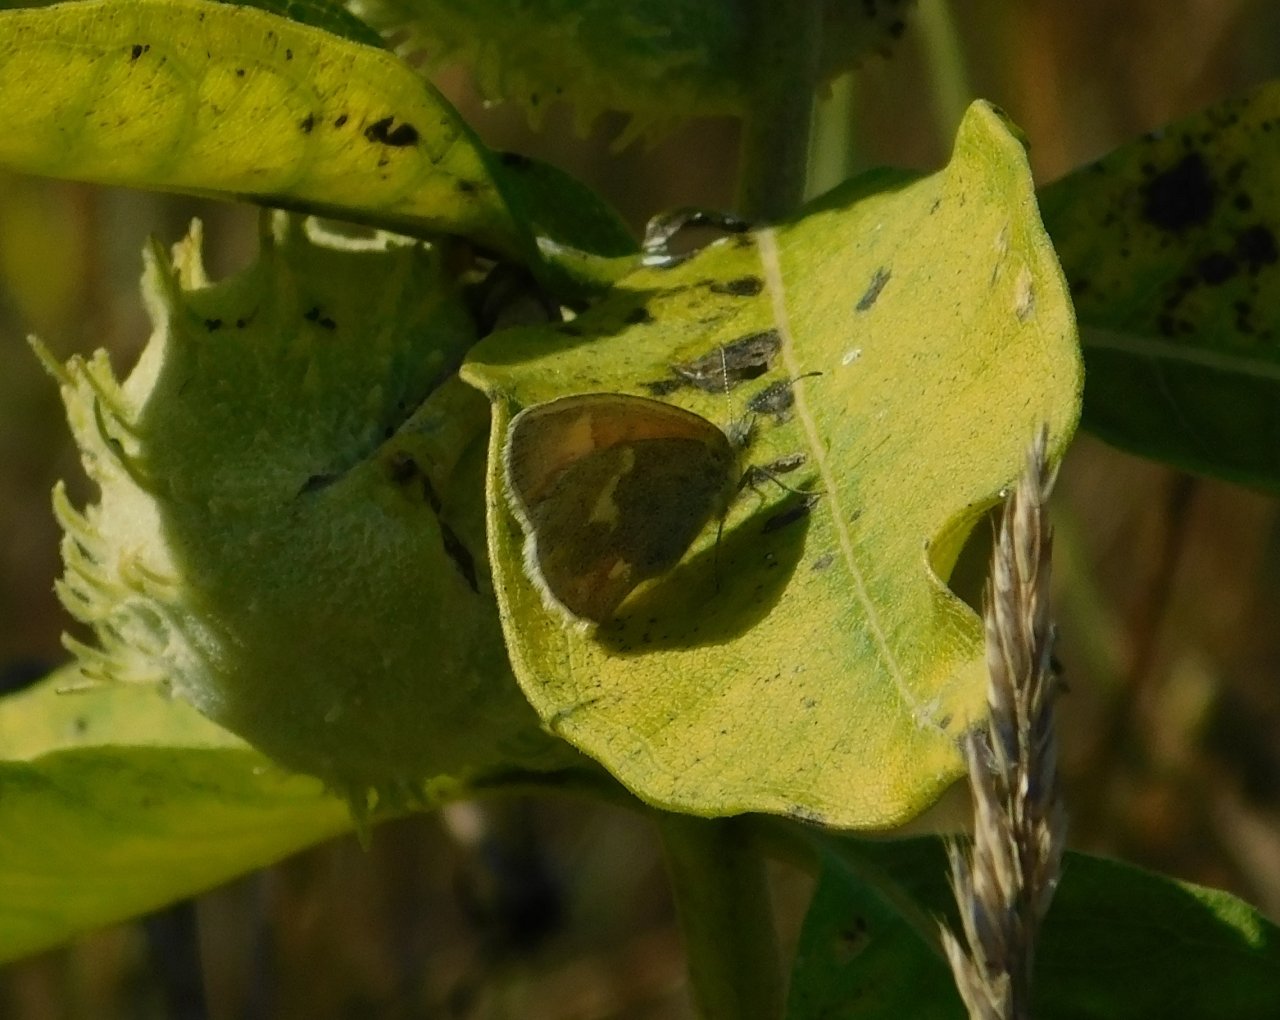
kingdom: Animalia
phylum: Arthropoda
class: Insecta
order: Lepidoptera
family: Nymphalidae
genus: Coenonympha
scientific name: Coenonympha tullia
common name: Large Heath
